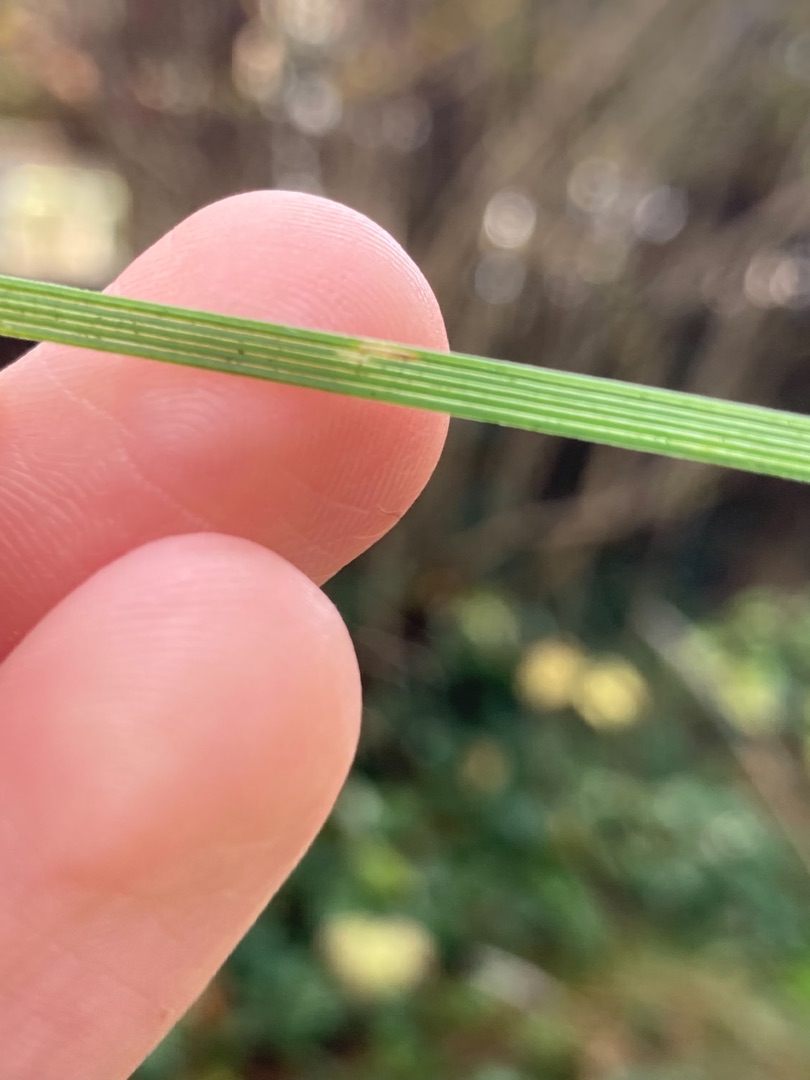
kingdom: Plantae
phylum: Tracheophyta
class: Liliopsida
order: Poales
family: Poaceae
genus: Deschampsia
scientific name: Deschampsia cespitosa
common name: Mose-bunke
